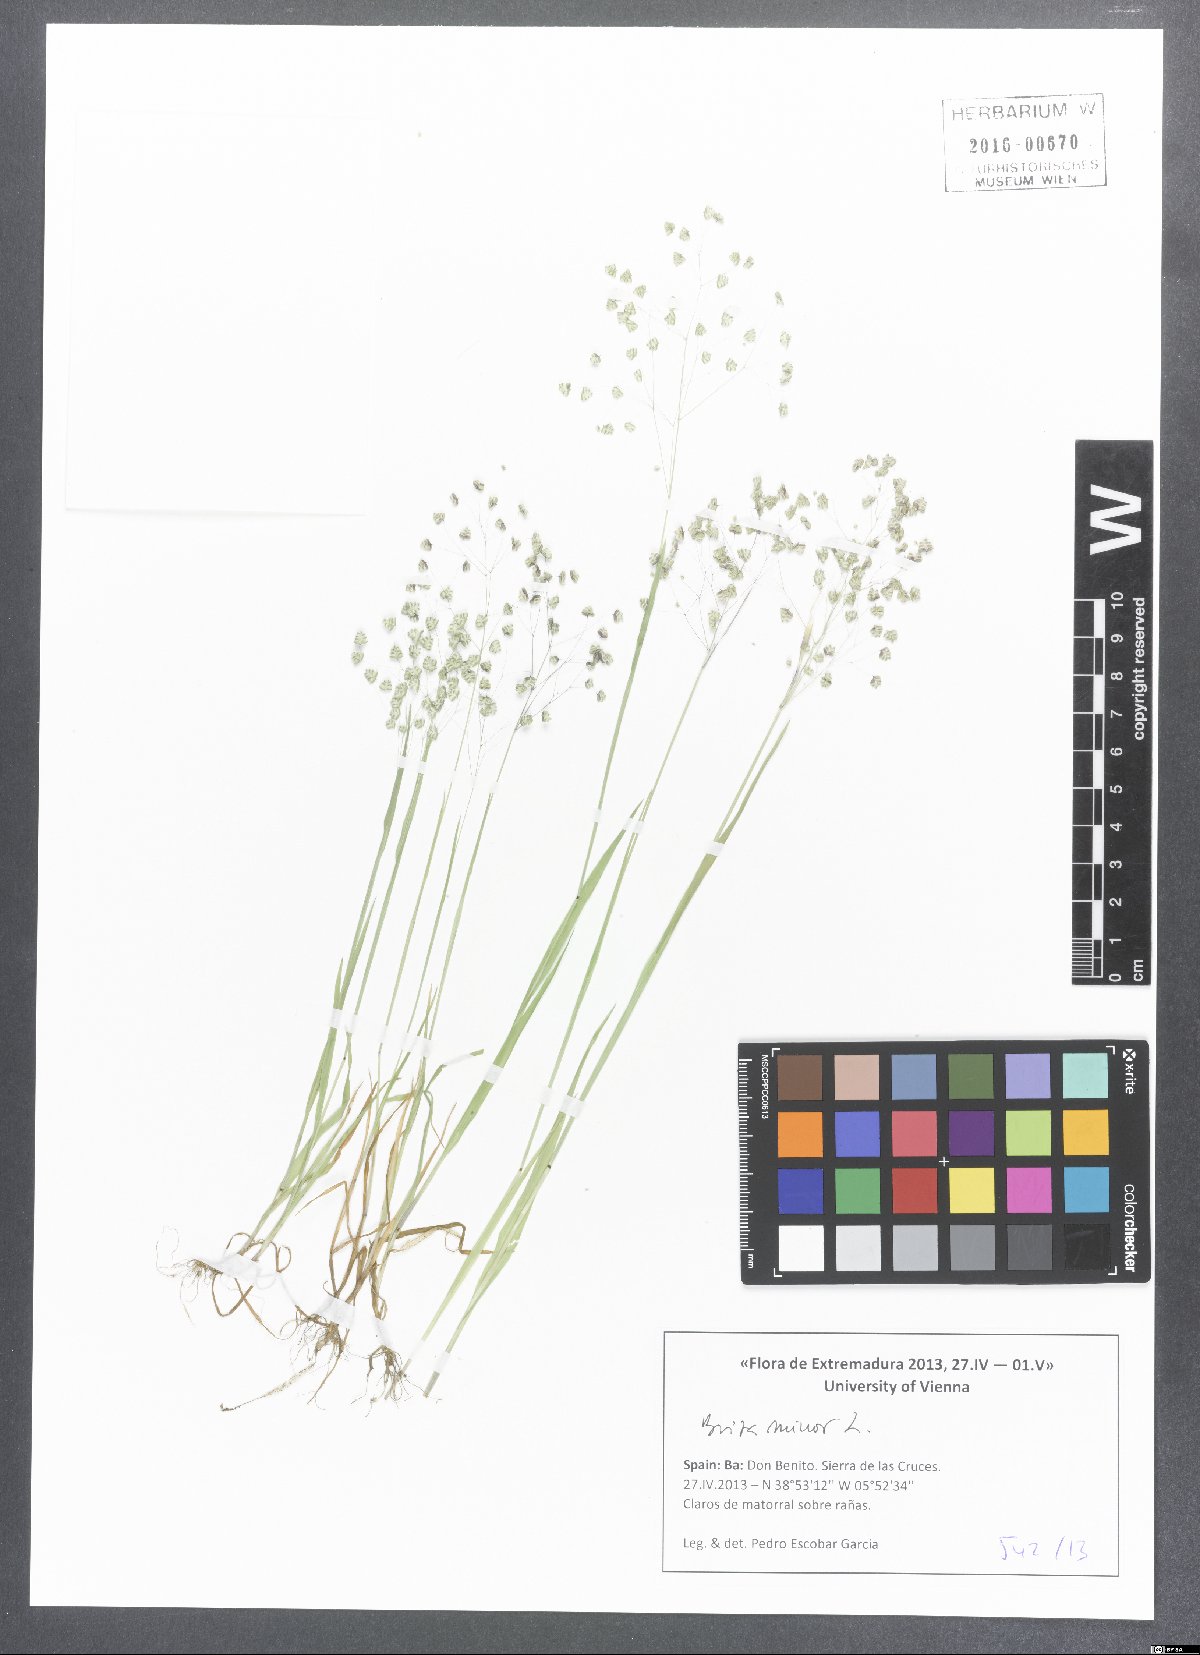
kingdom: Plantae
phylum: Tracheophyta
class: Liliopsida
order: Poales
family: Poaceae
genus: Briza
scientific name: Briza minor
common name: Lesser quaking-grass
